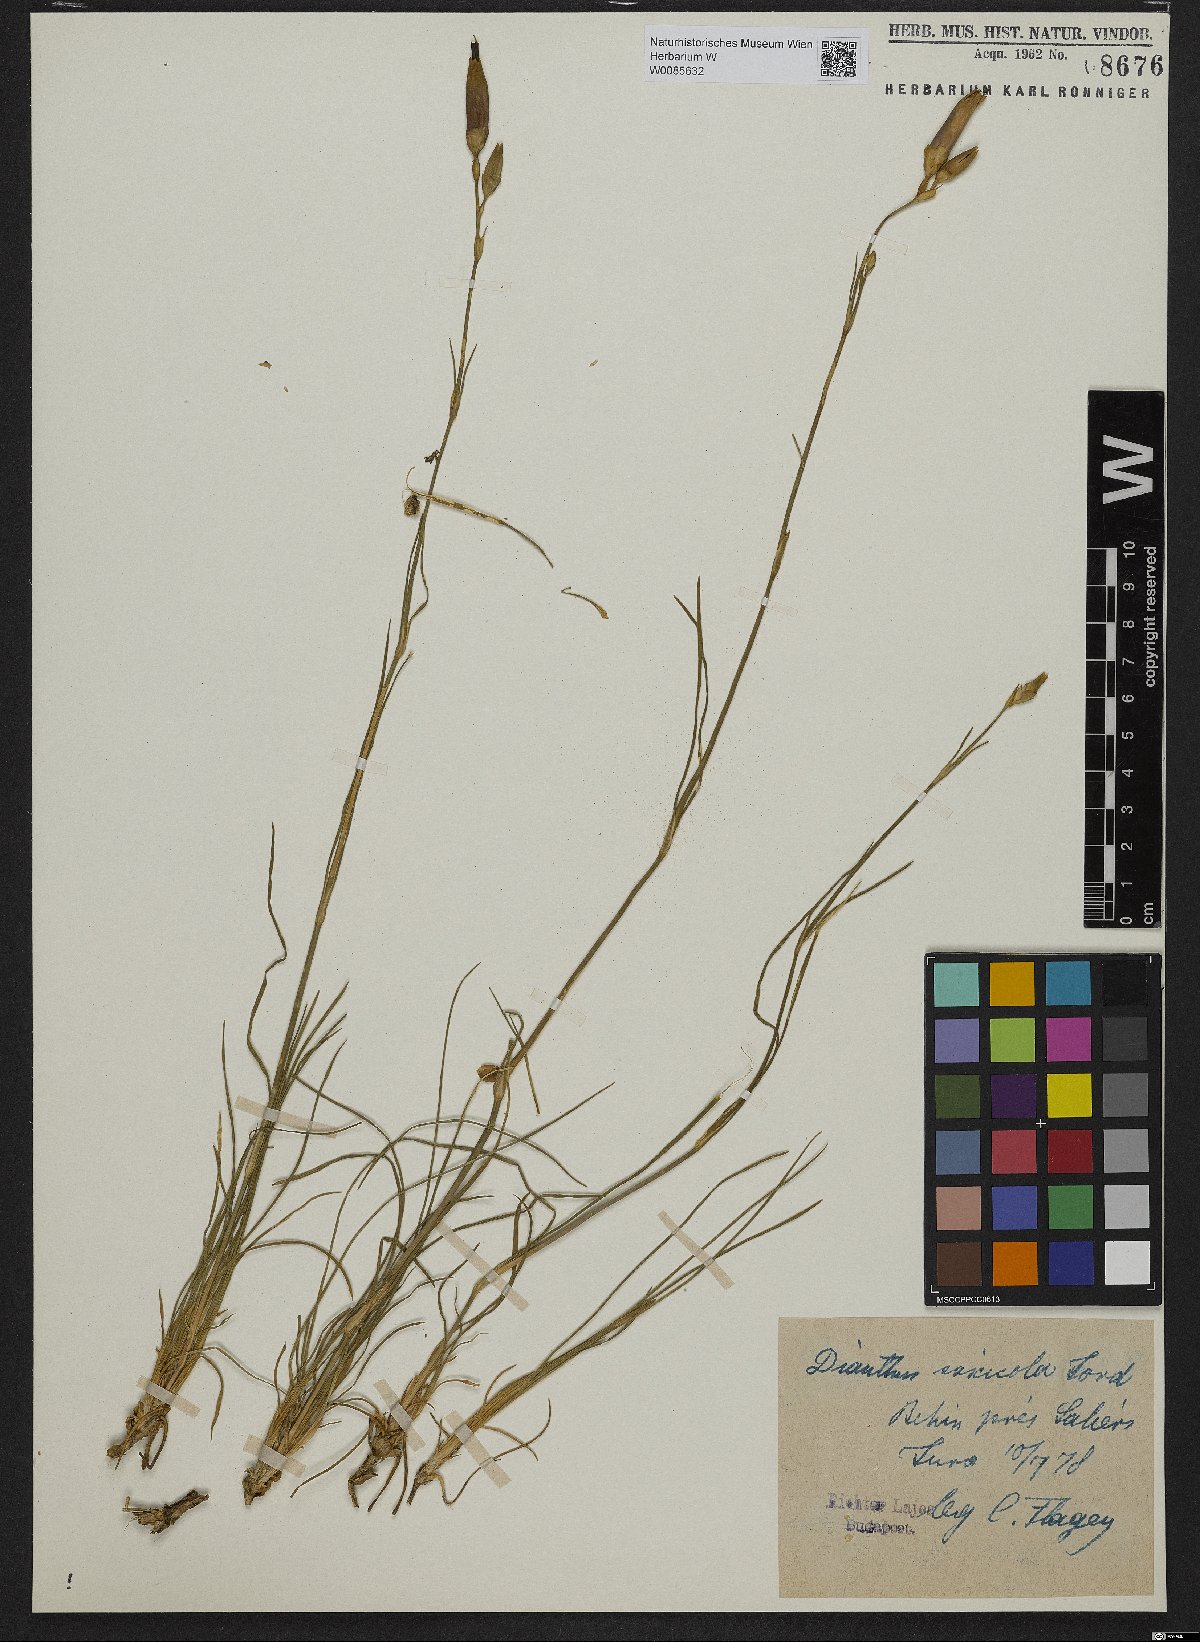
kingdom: Plantae
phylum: Tracheophyta
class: Magnoliopsida
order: Caryophyllales
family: Caryophyllaceae
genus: Dianthus
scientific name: Dianthus sylvestris
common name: Wood pink
